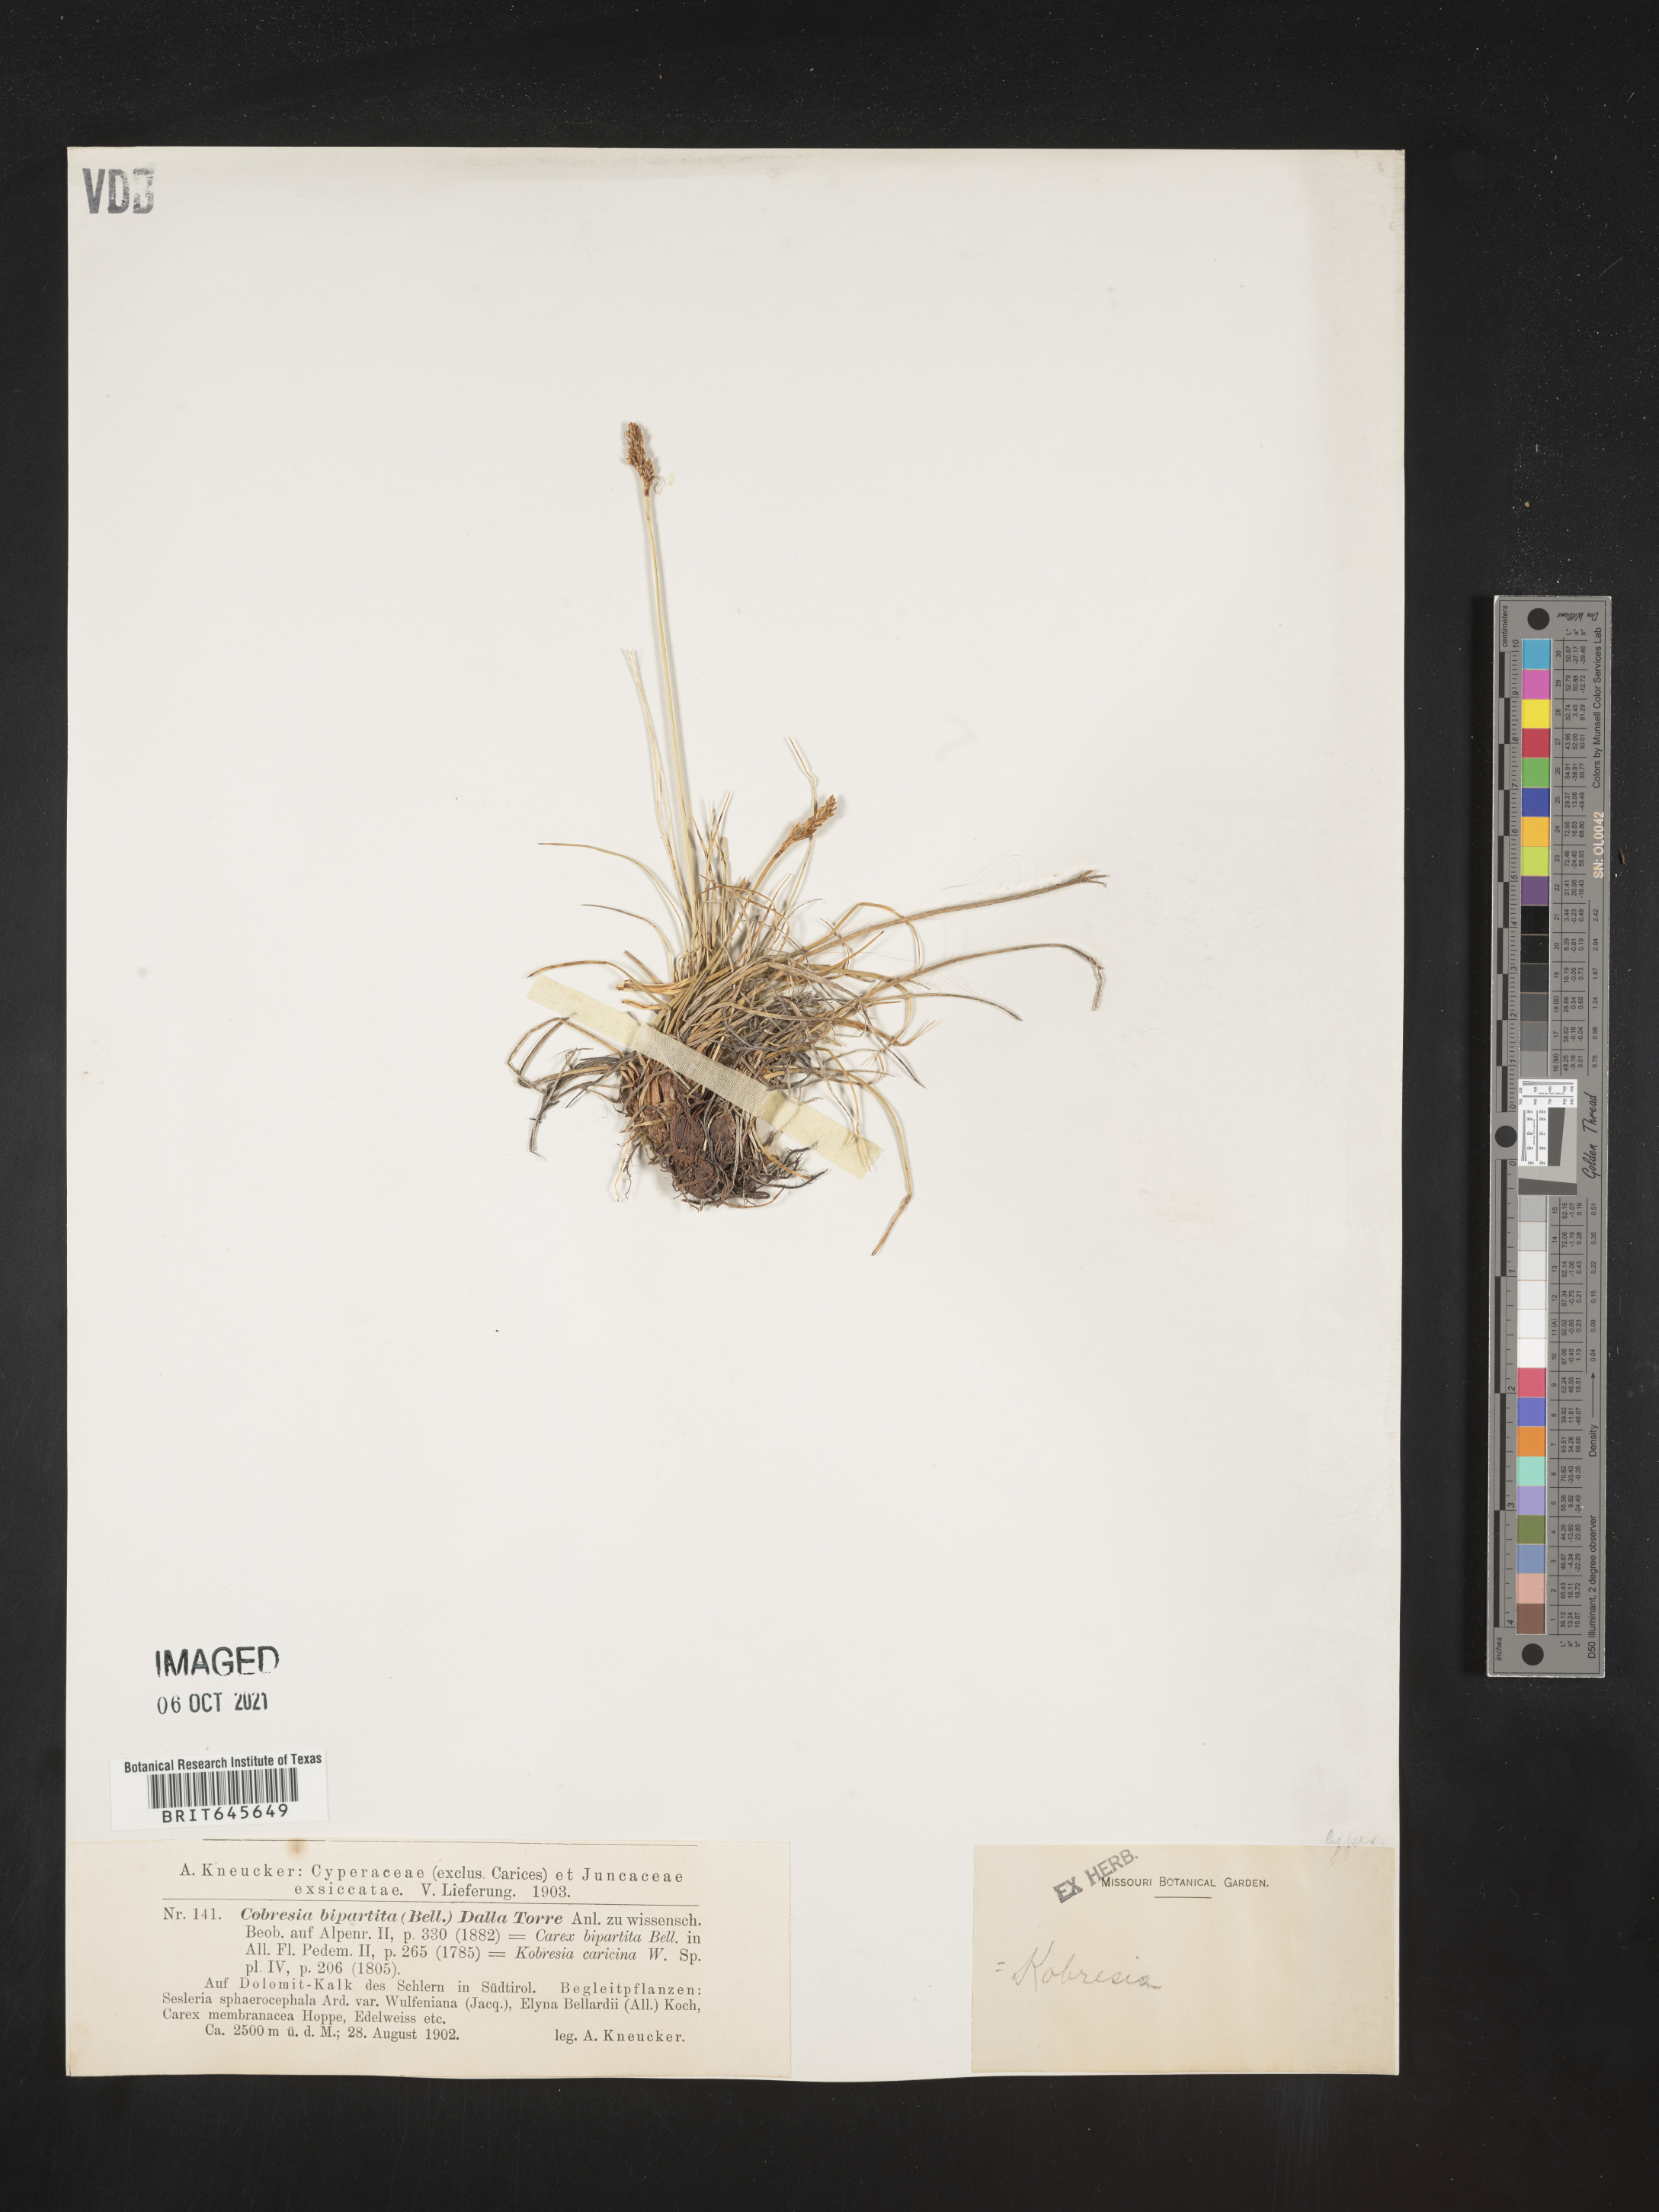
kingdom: Plantae
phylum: Tracheophyta
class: Liliopsida
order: Poales
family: Cyperaceae
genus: Carex
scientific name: Carex
